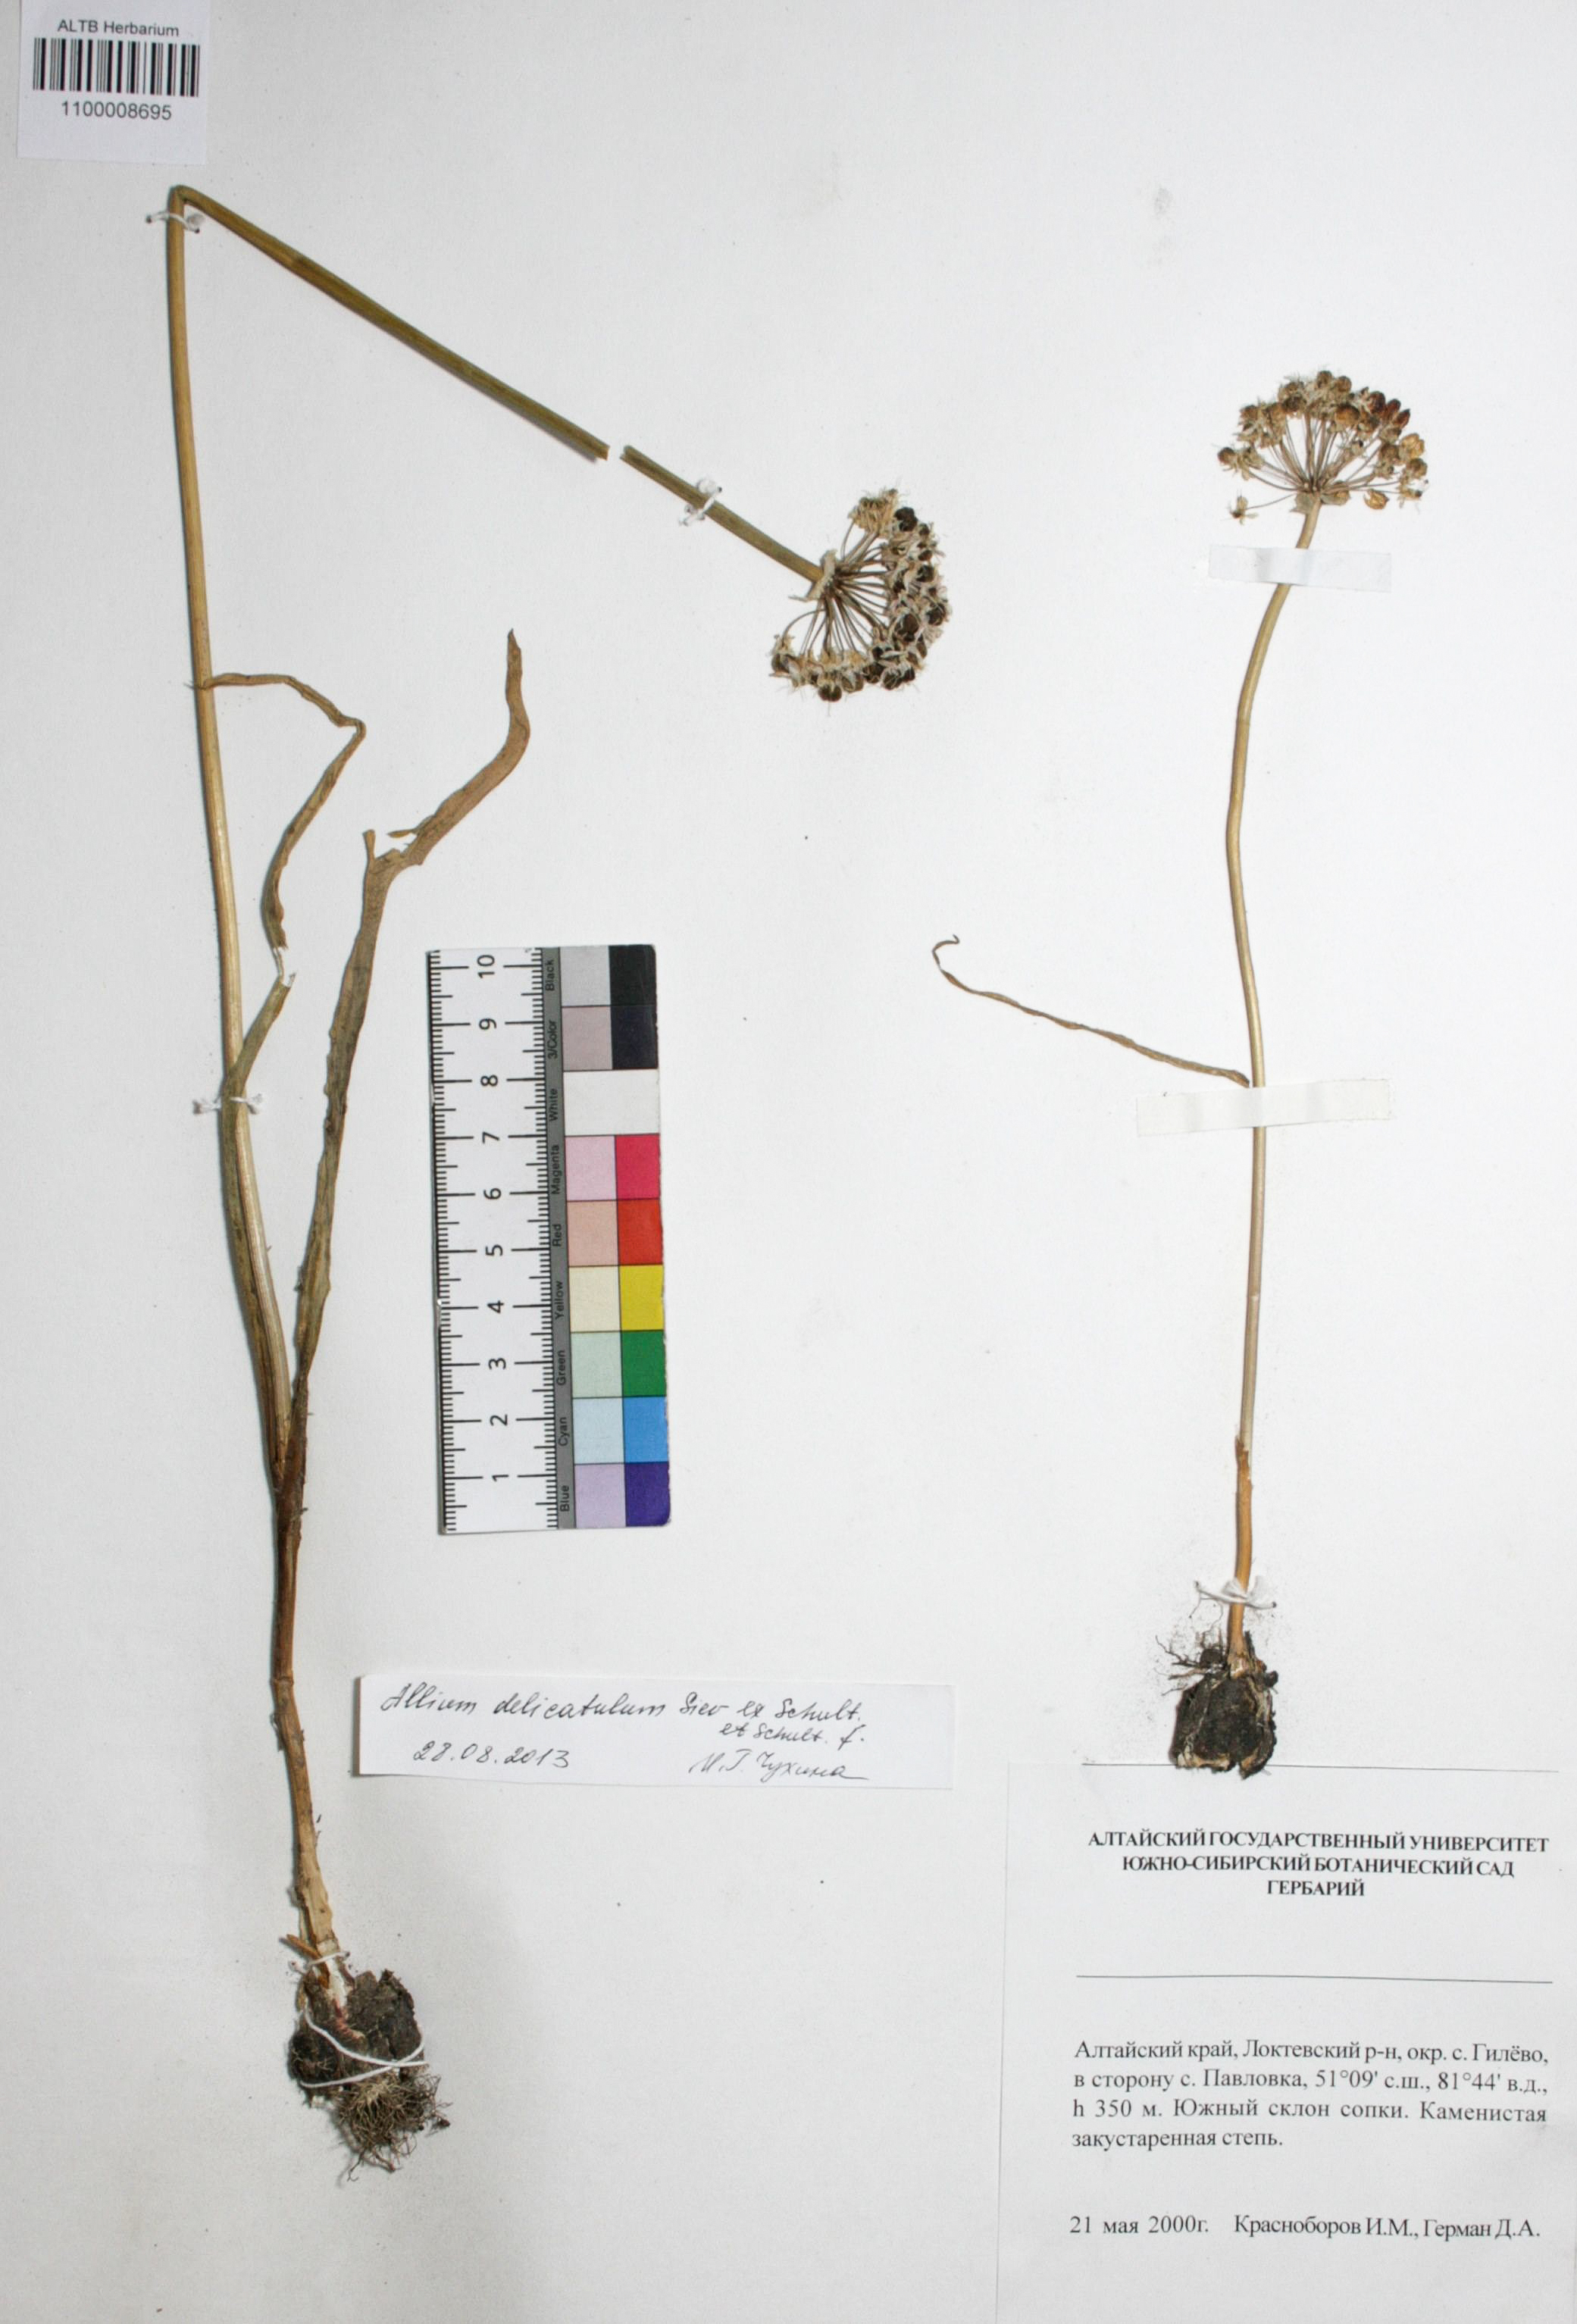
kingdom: Plantae
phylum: Tracheophyta
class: Liliopsida
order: Asparagales
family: Amaryllidaceae
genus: Allium
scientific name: Allium delicatulum
